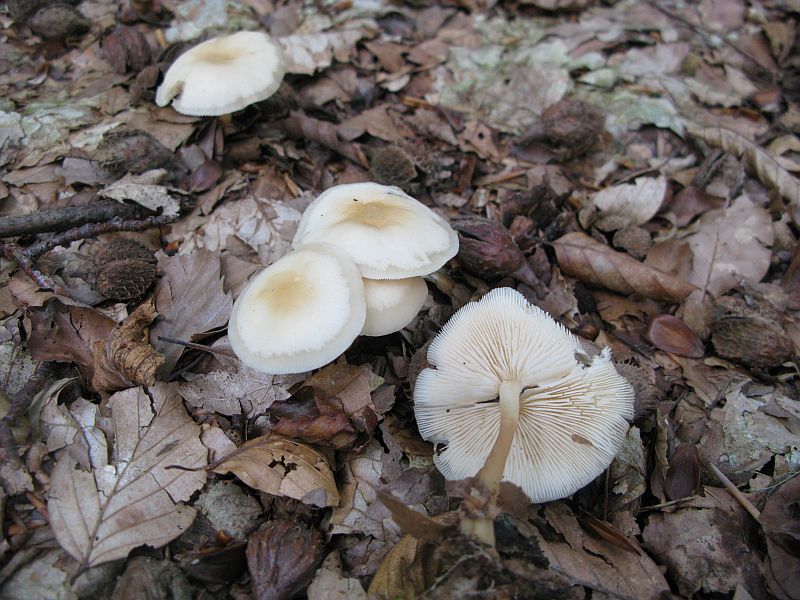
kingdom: Fungi
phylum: Basidiomycota
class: Agaricomycetes
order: Agaricales
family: Omphalotaceae
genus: Gymnopus
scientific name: Gymnopus dryophilus
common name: løv-fladhat
